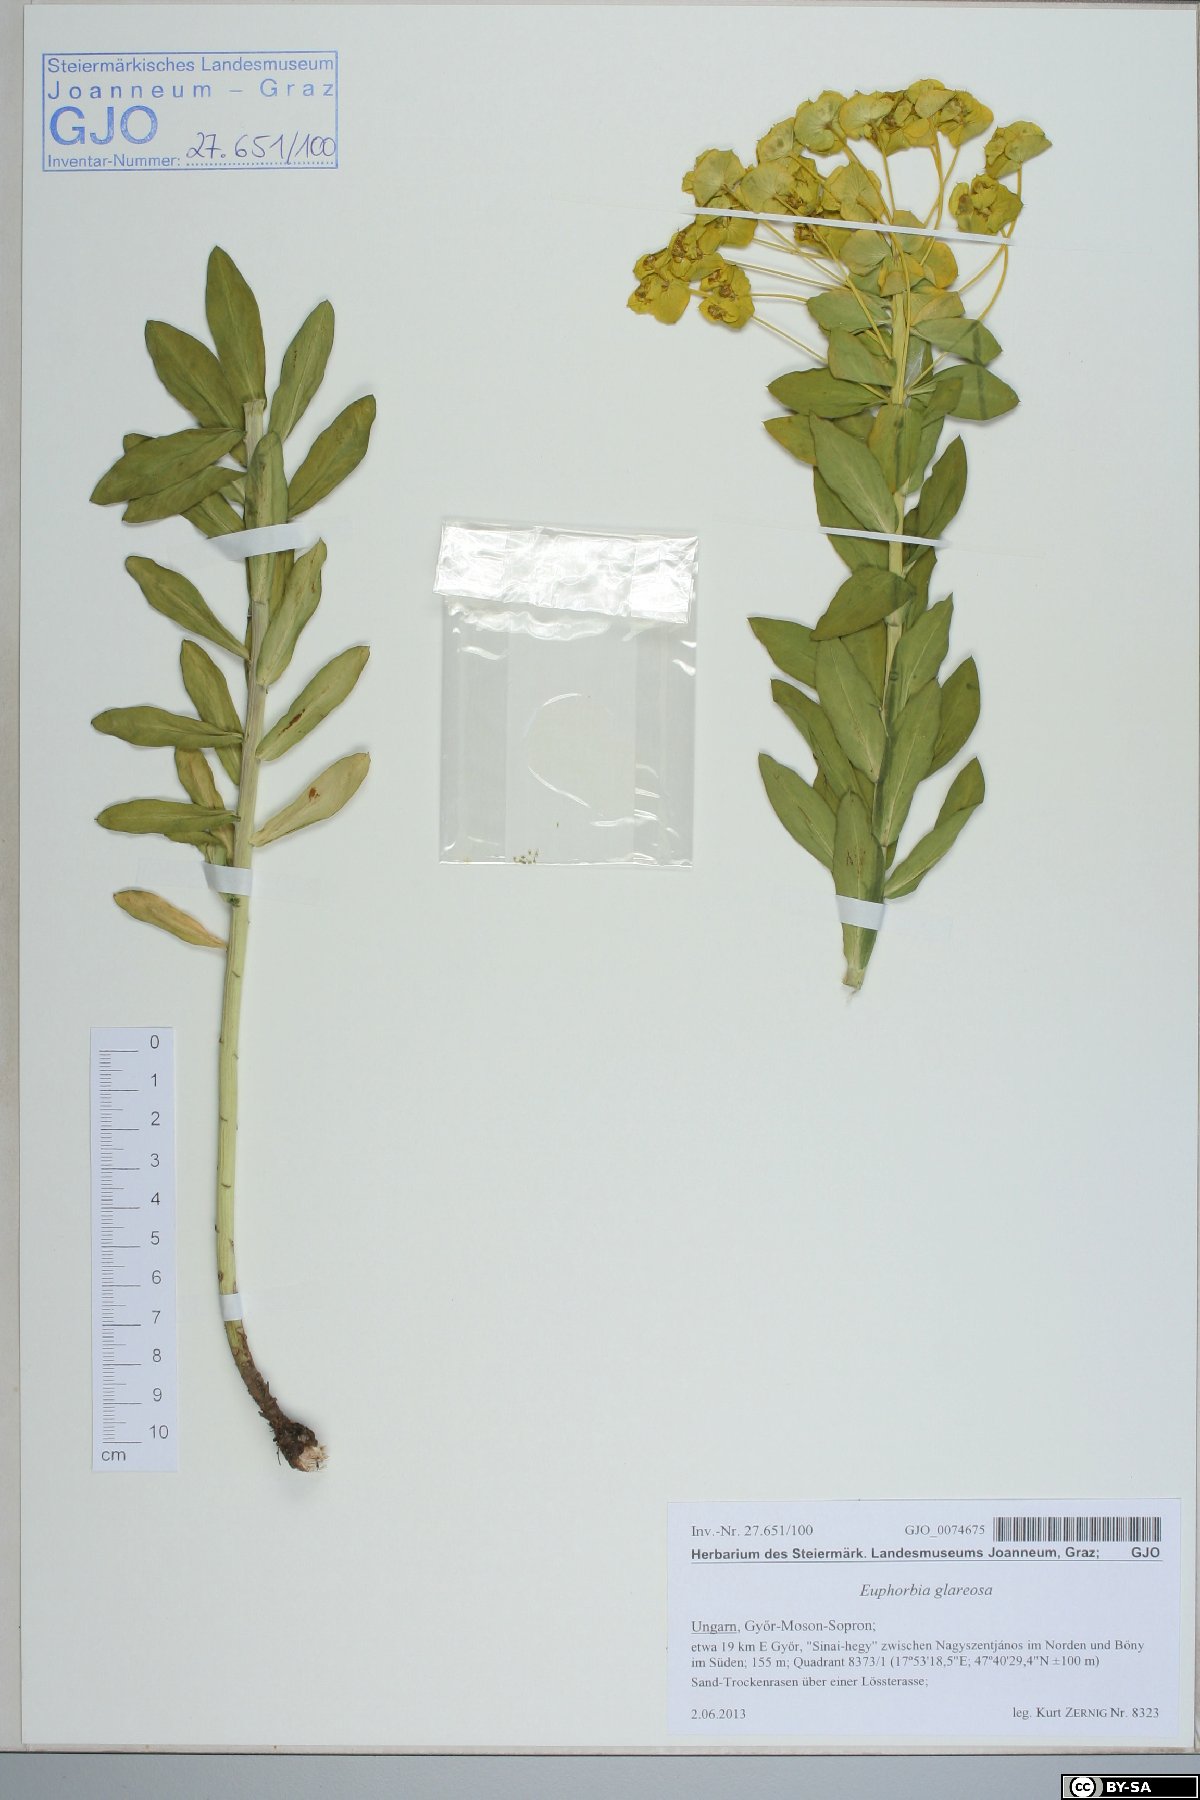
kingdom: Plantae
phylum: Tracheophyta
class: Magnoliopsida
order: Malpighiales
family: Euphorbiaceae
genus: Euphorbia
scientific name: Euphorbia glareosa
